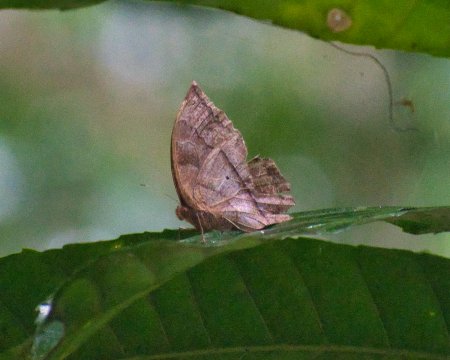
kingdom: Animalia
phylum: Arthropoda
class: Insecta
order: Lepidoptera
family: Nymphalidae
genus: Taygetis
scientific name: Taygetis virgilia
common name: Stub-tailed Satyr
